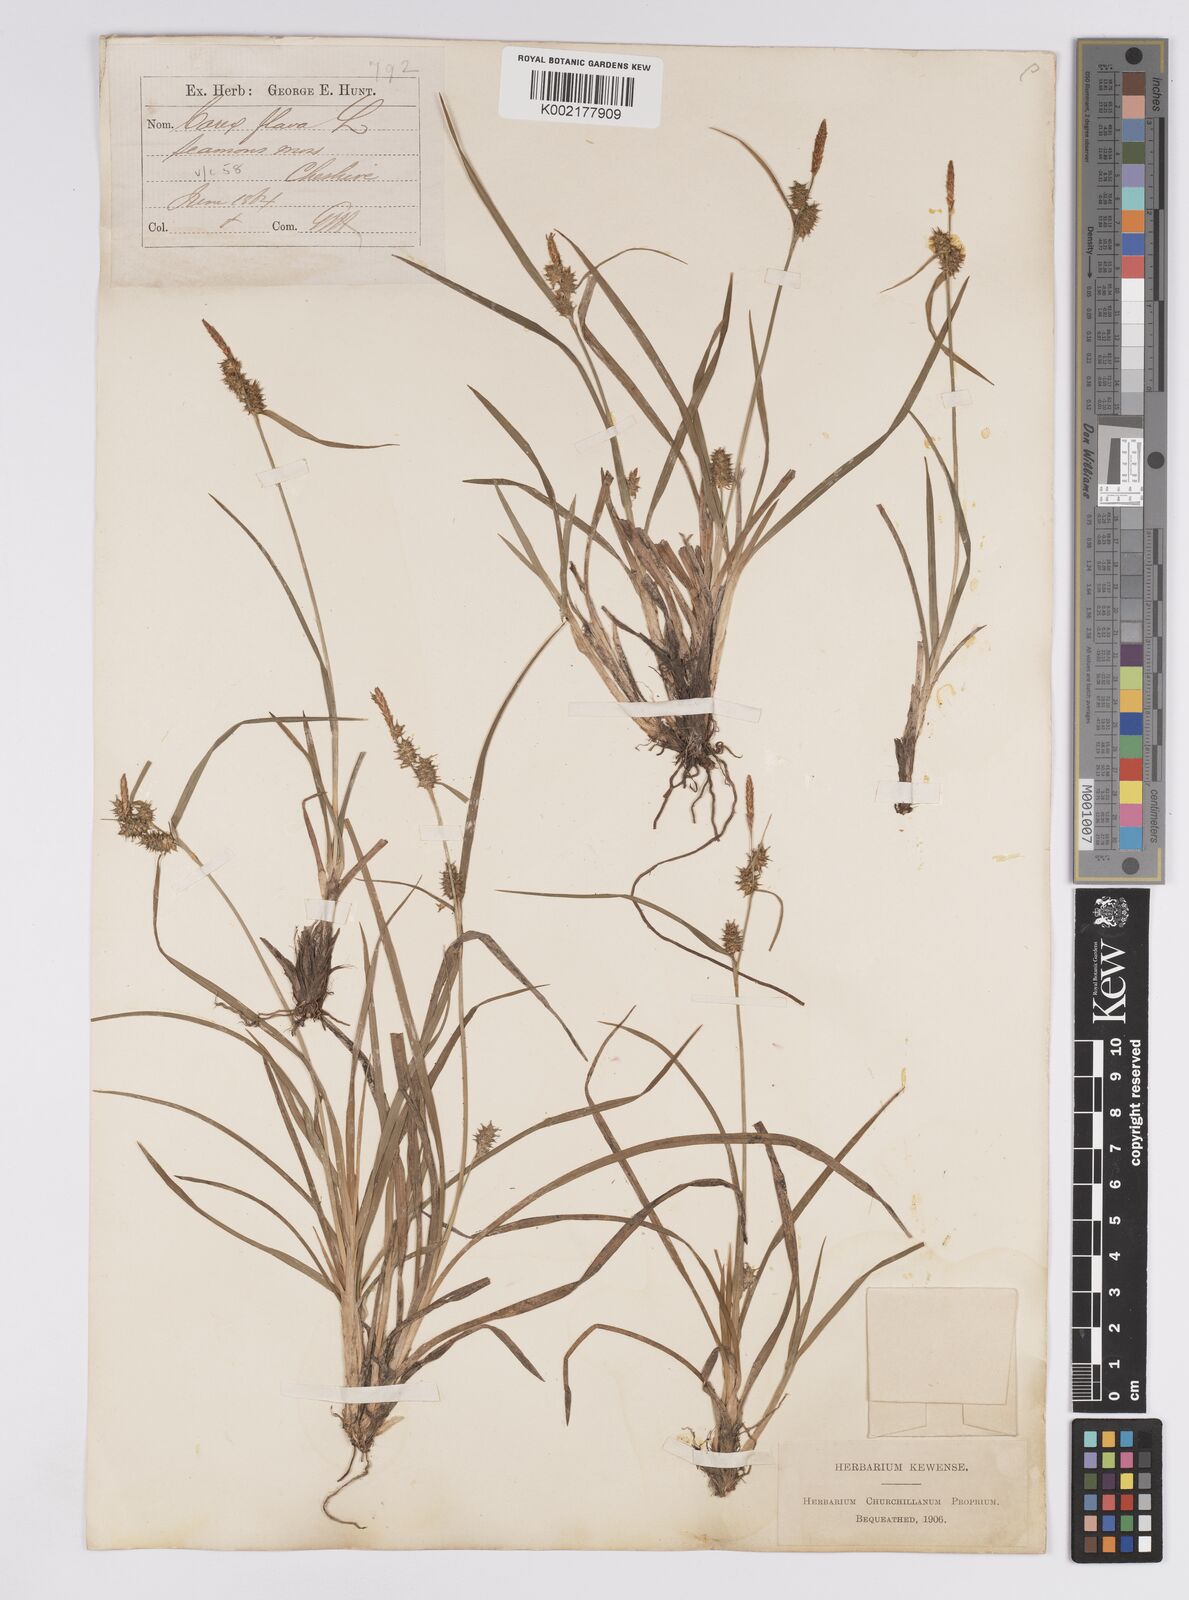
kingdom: Plantae
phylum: Tracheophyta
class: Liliopsida
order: Poales
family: Cyperaceae
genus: Carex
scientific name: Carex demissa
